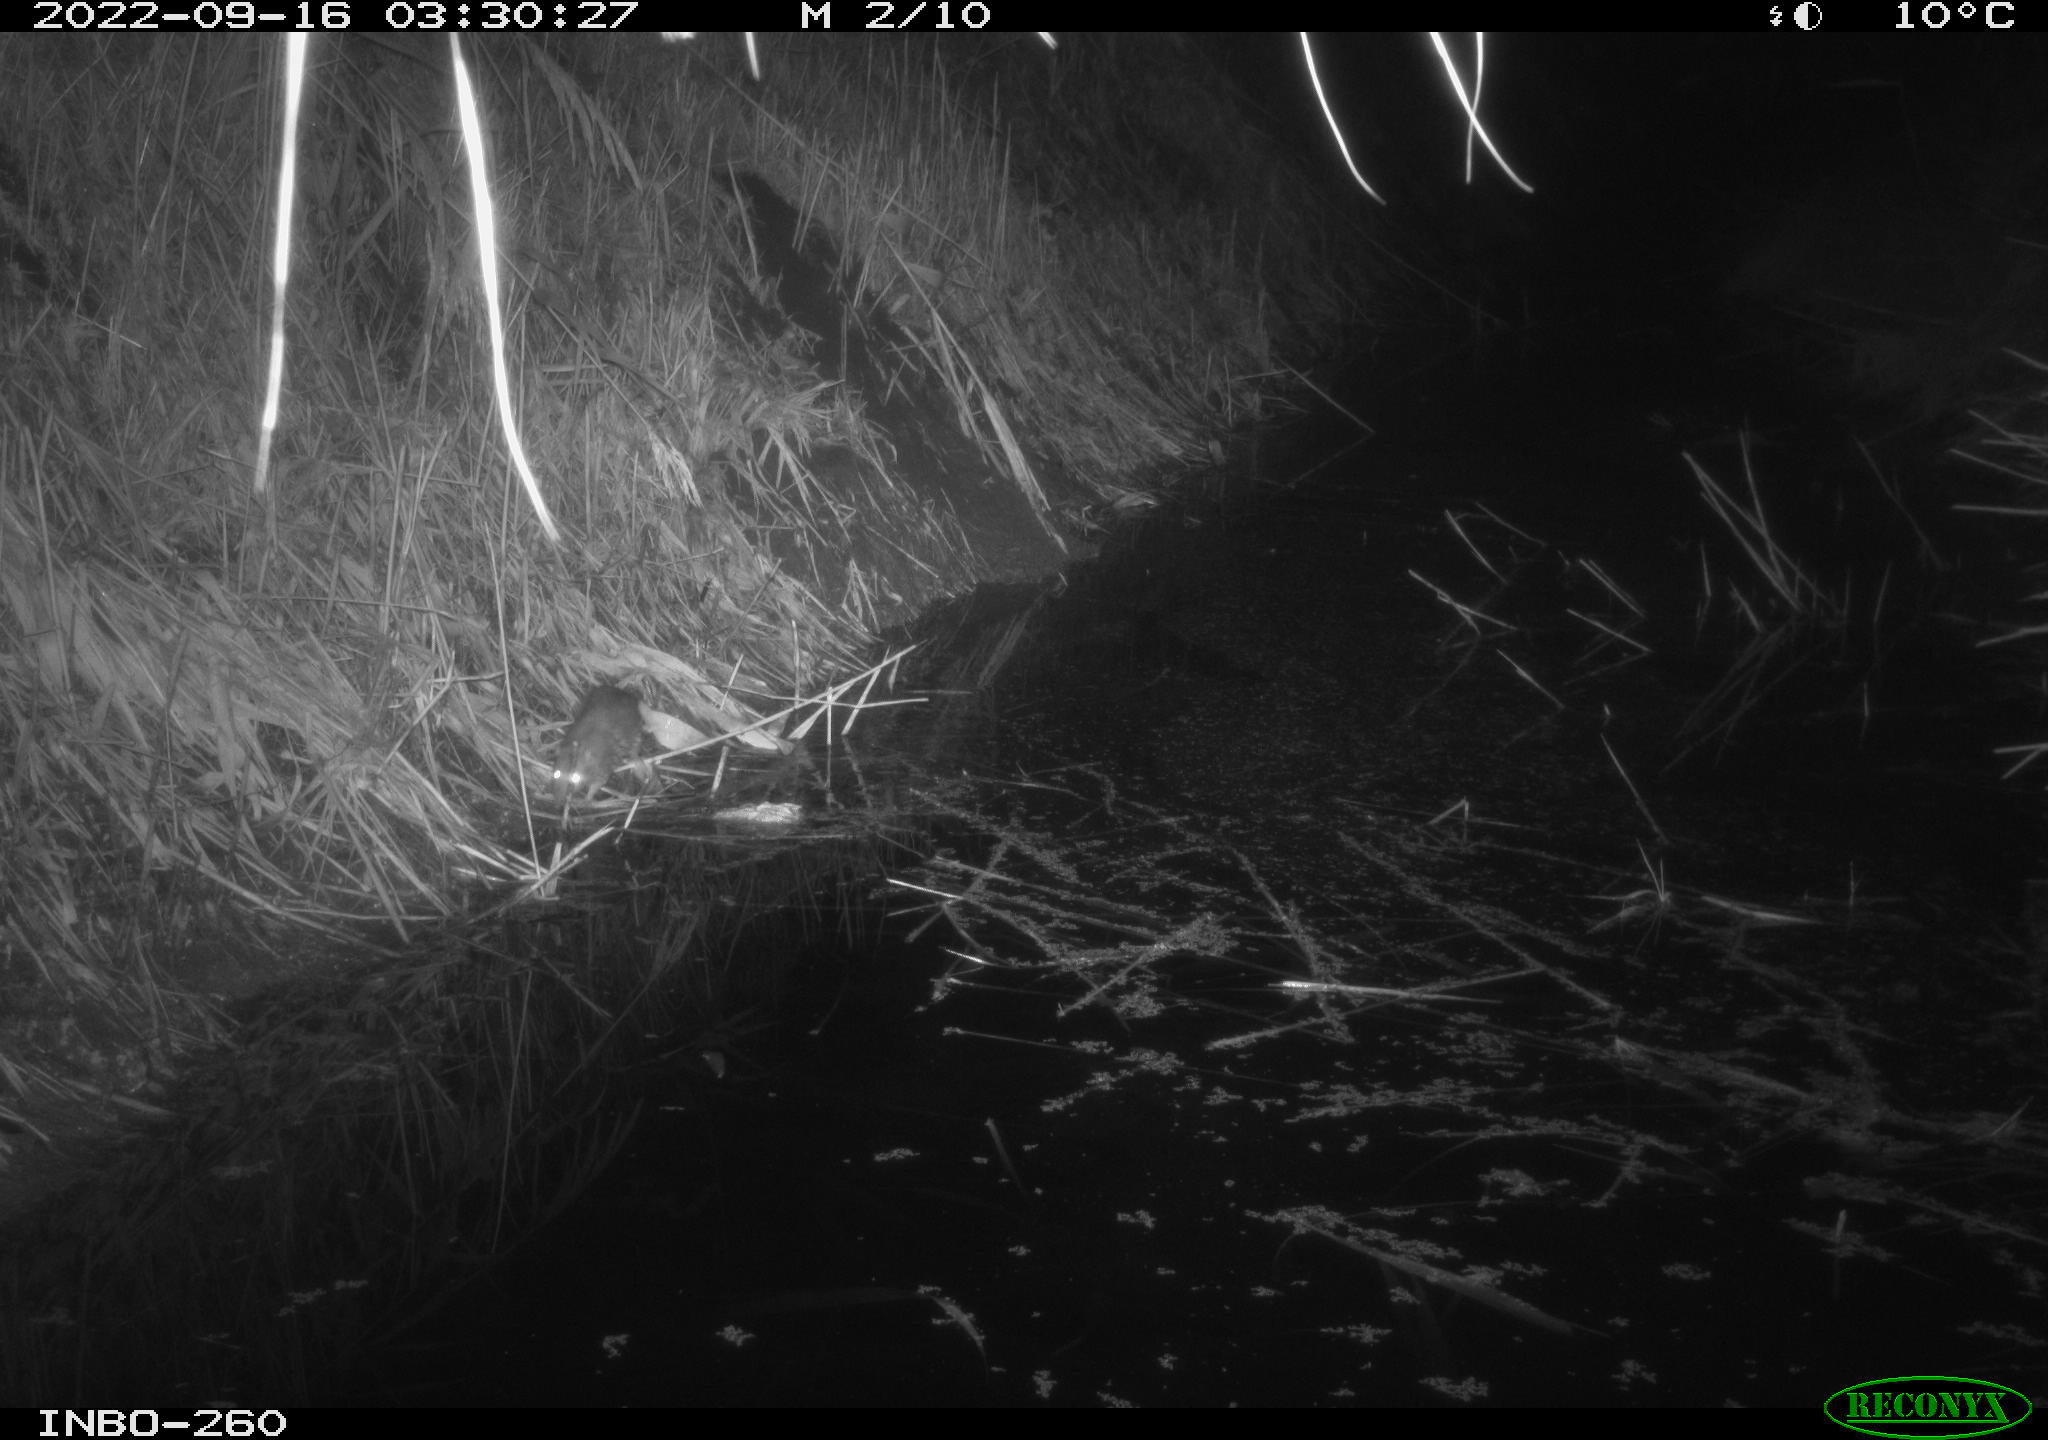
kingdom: Animalia
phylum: Chordata
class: Mammalia
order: Rodentia
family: Muridae
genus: Rattus
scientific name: Rattus norvegicus
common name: Brown rat
